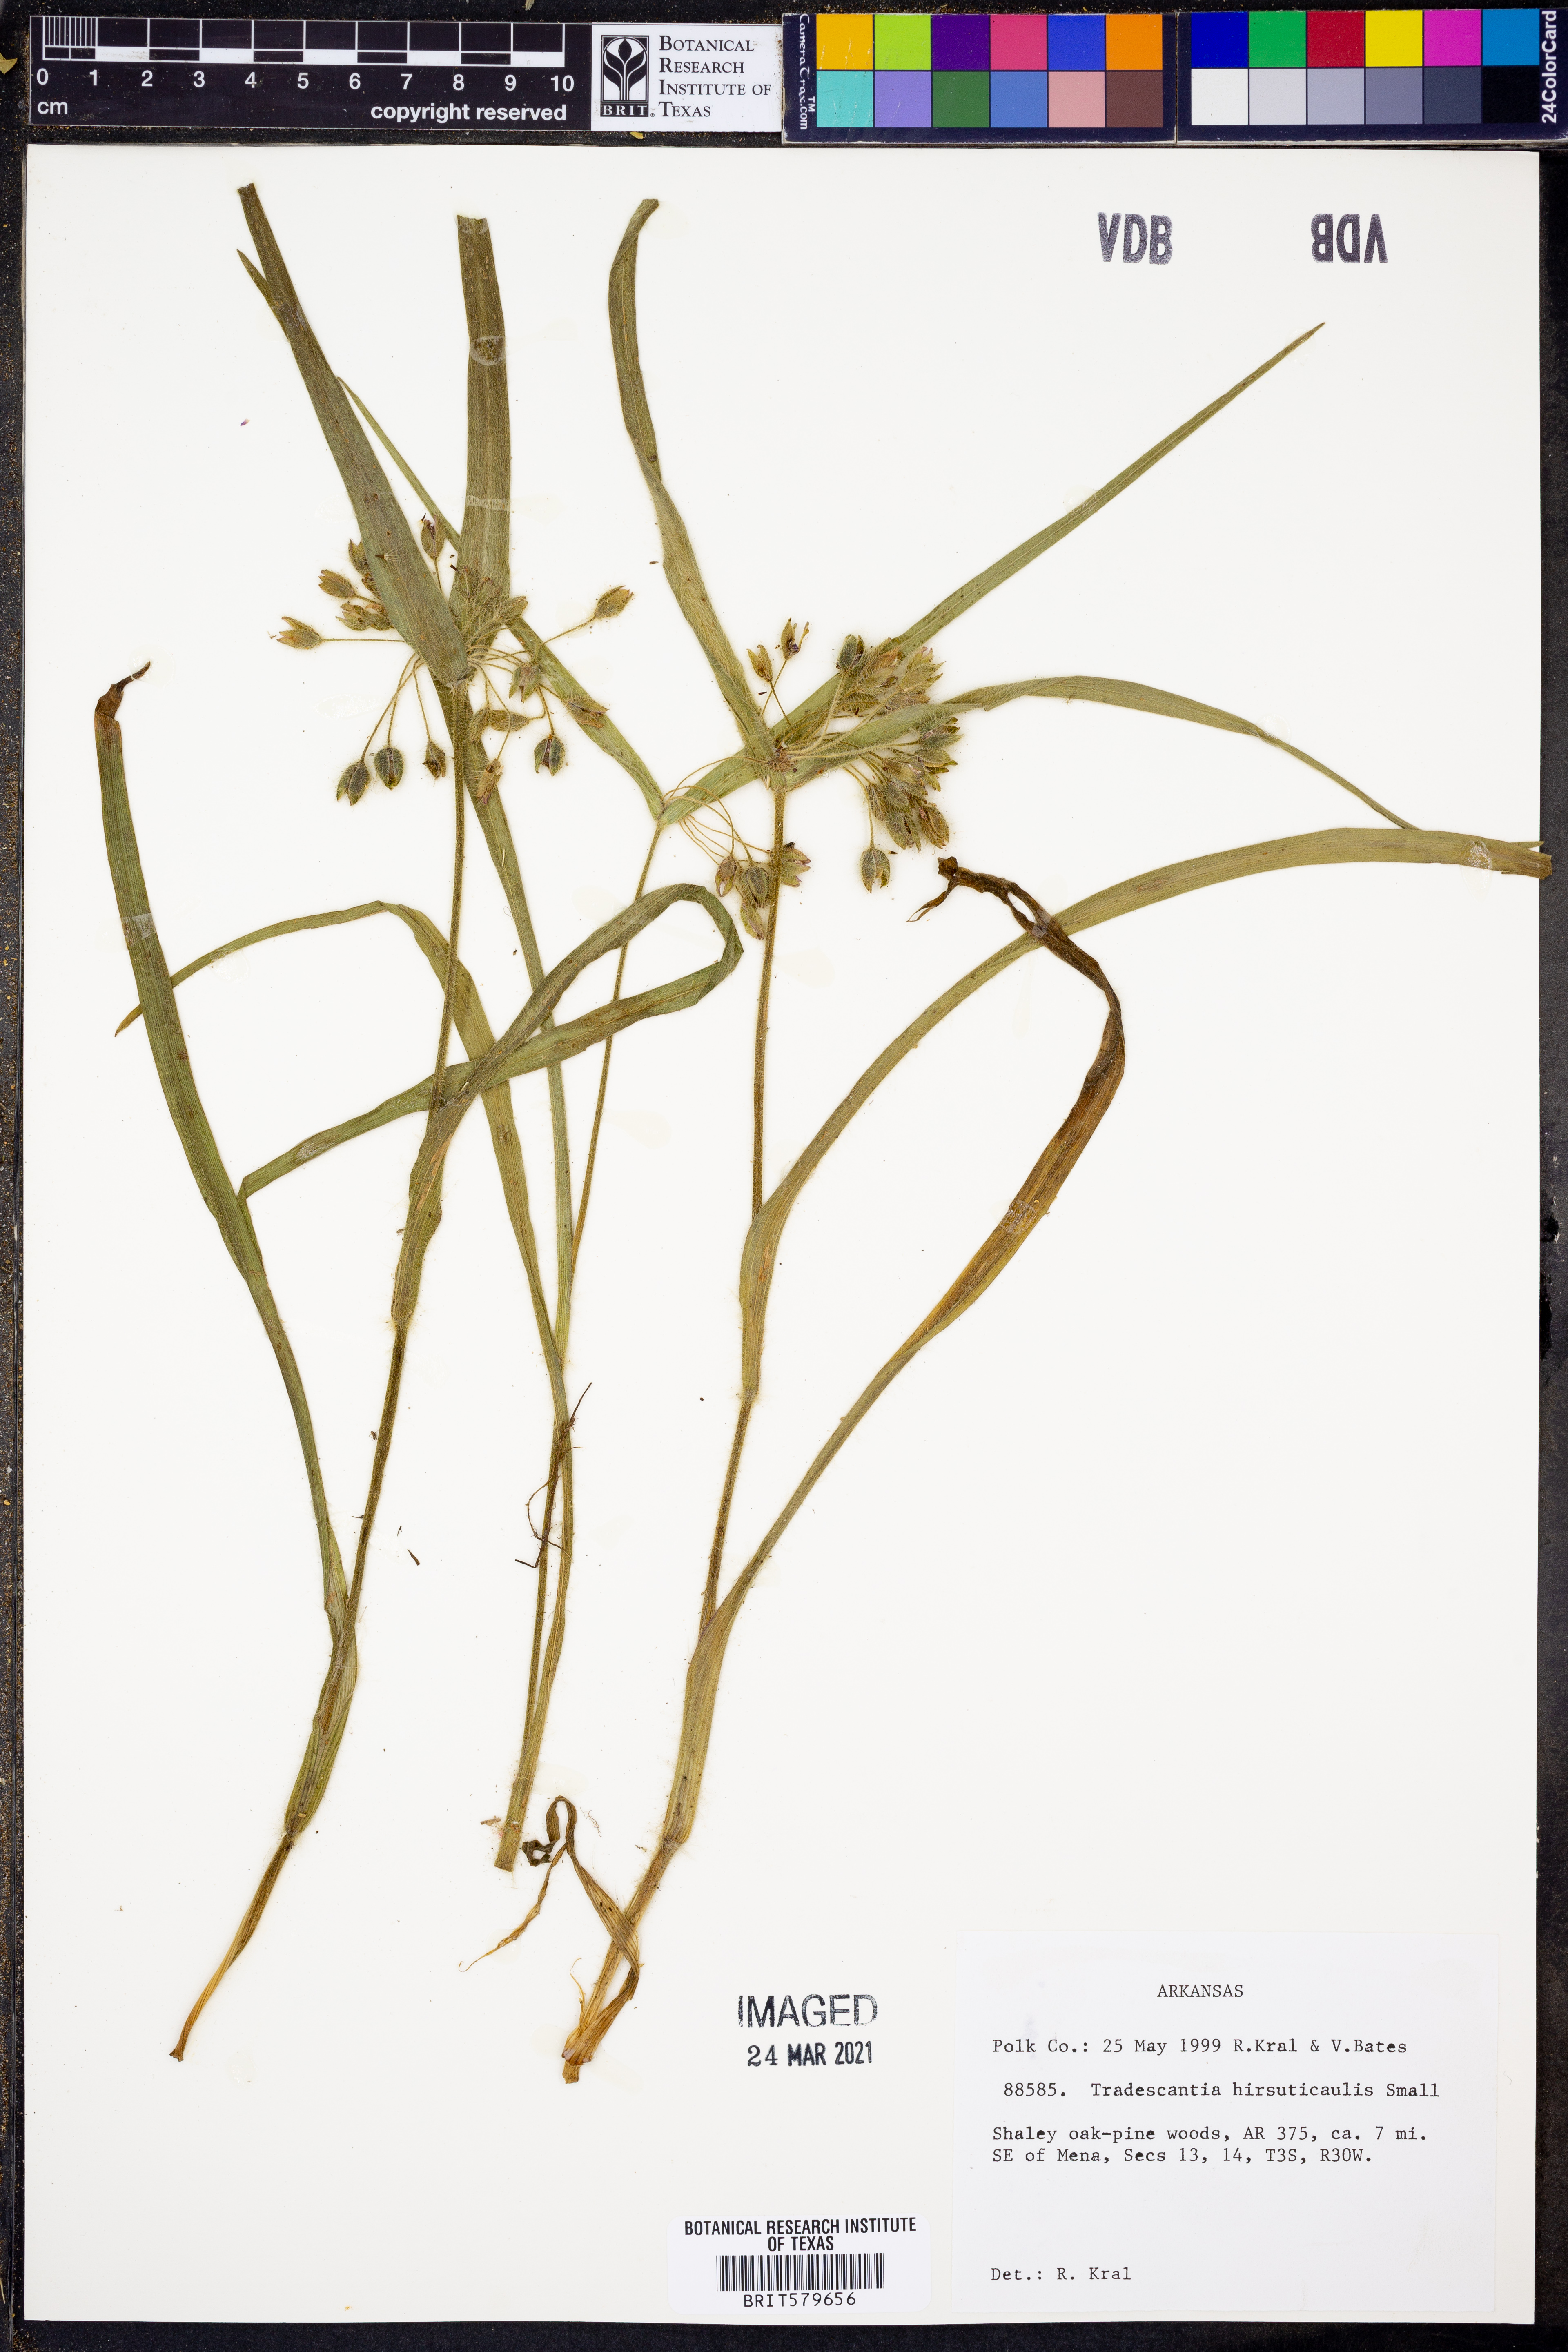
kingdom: Plantae
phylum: Tracheophyta
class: Liliopsida
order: Commelinales
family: Commelinaceae
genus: Tradescantia
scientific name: Tradescantia hirsuticaulis
